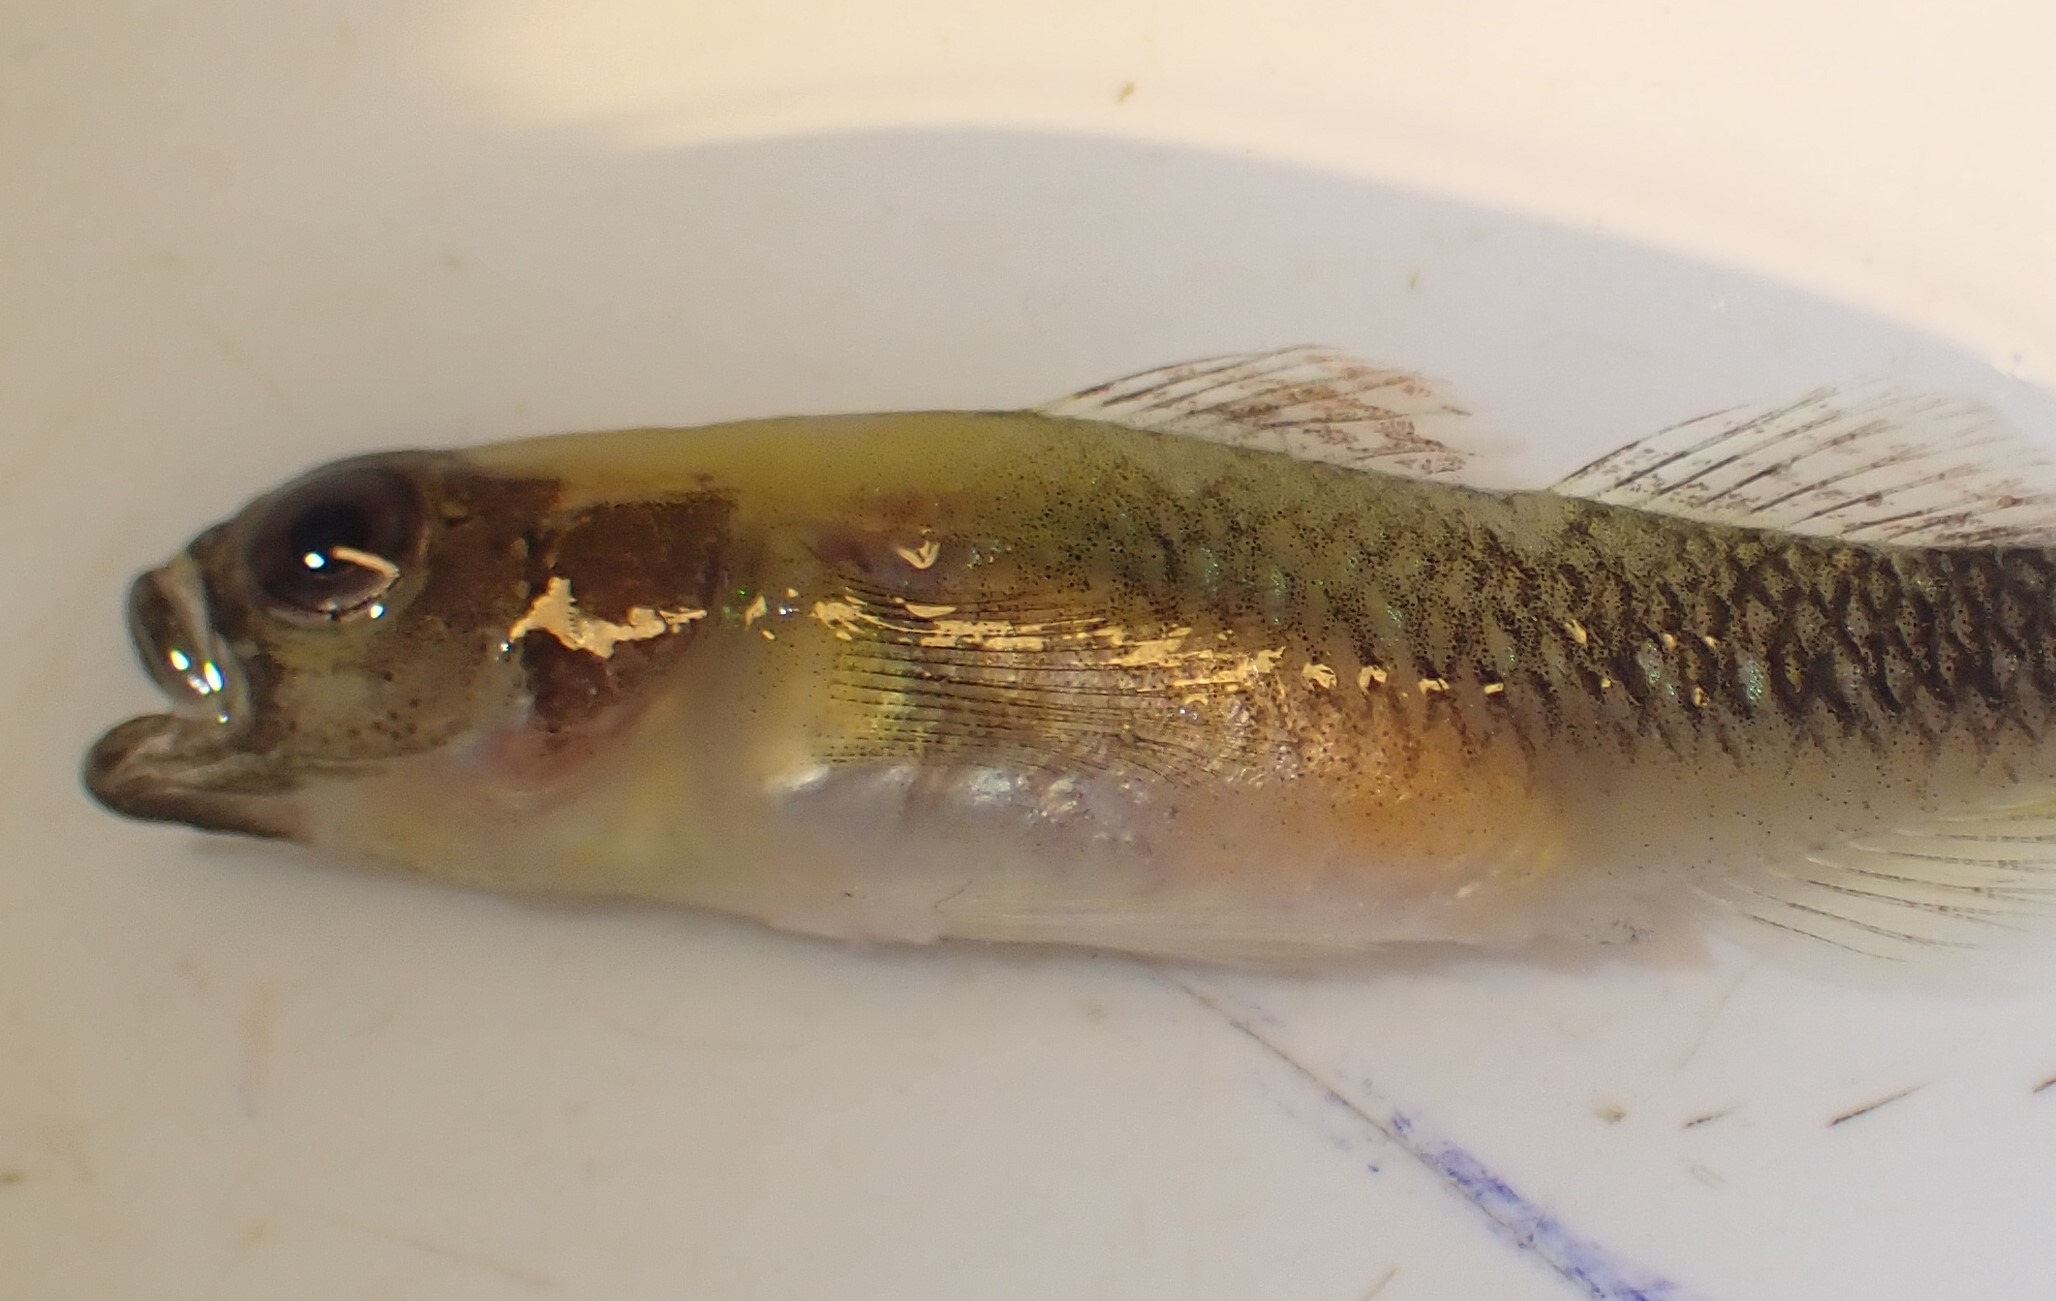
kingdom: Animalia
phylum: Chordata
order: Perciformes
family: Gobiidae
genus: Gobiusculus
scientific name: Gobiusculus flavescens
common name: Toplettet kutling
